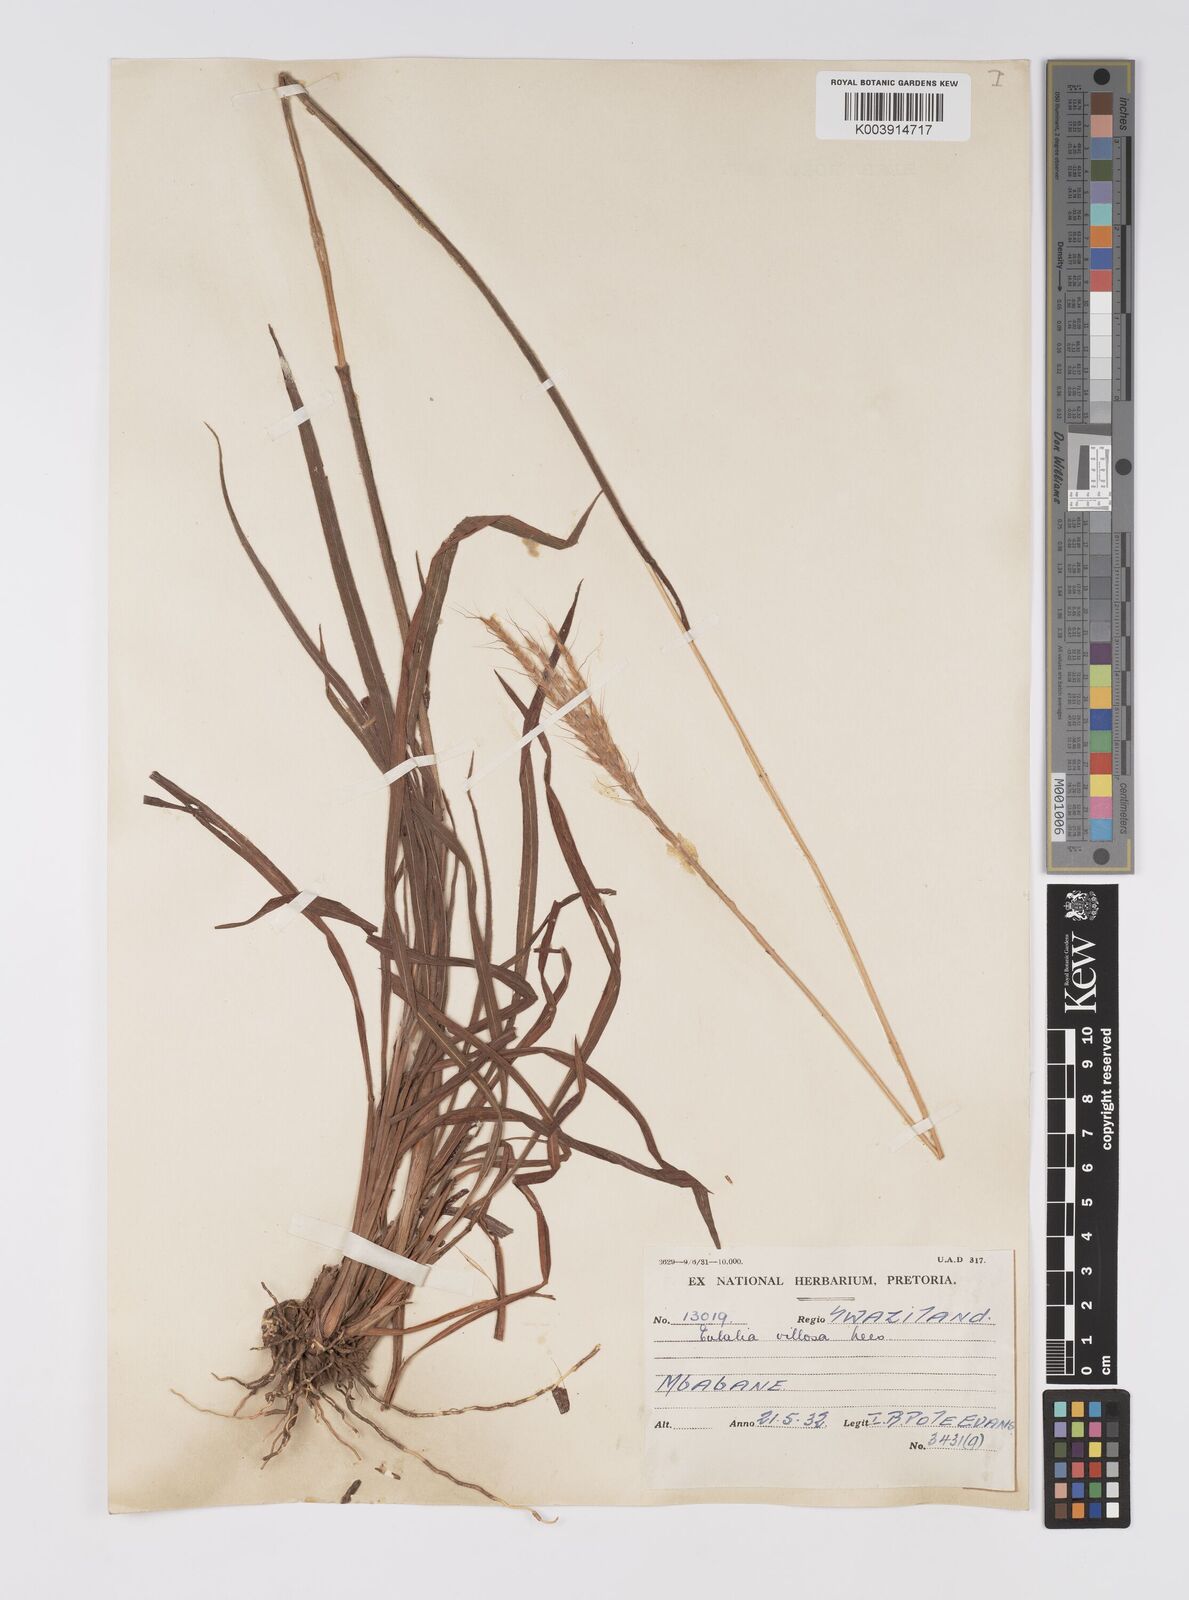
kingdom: Plantae
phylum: Tracheophyta
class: Liliopsida
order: Poales
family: Poaceae
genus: Eulalia
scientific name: Eulalia villosa
